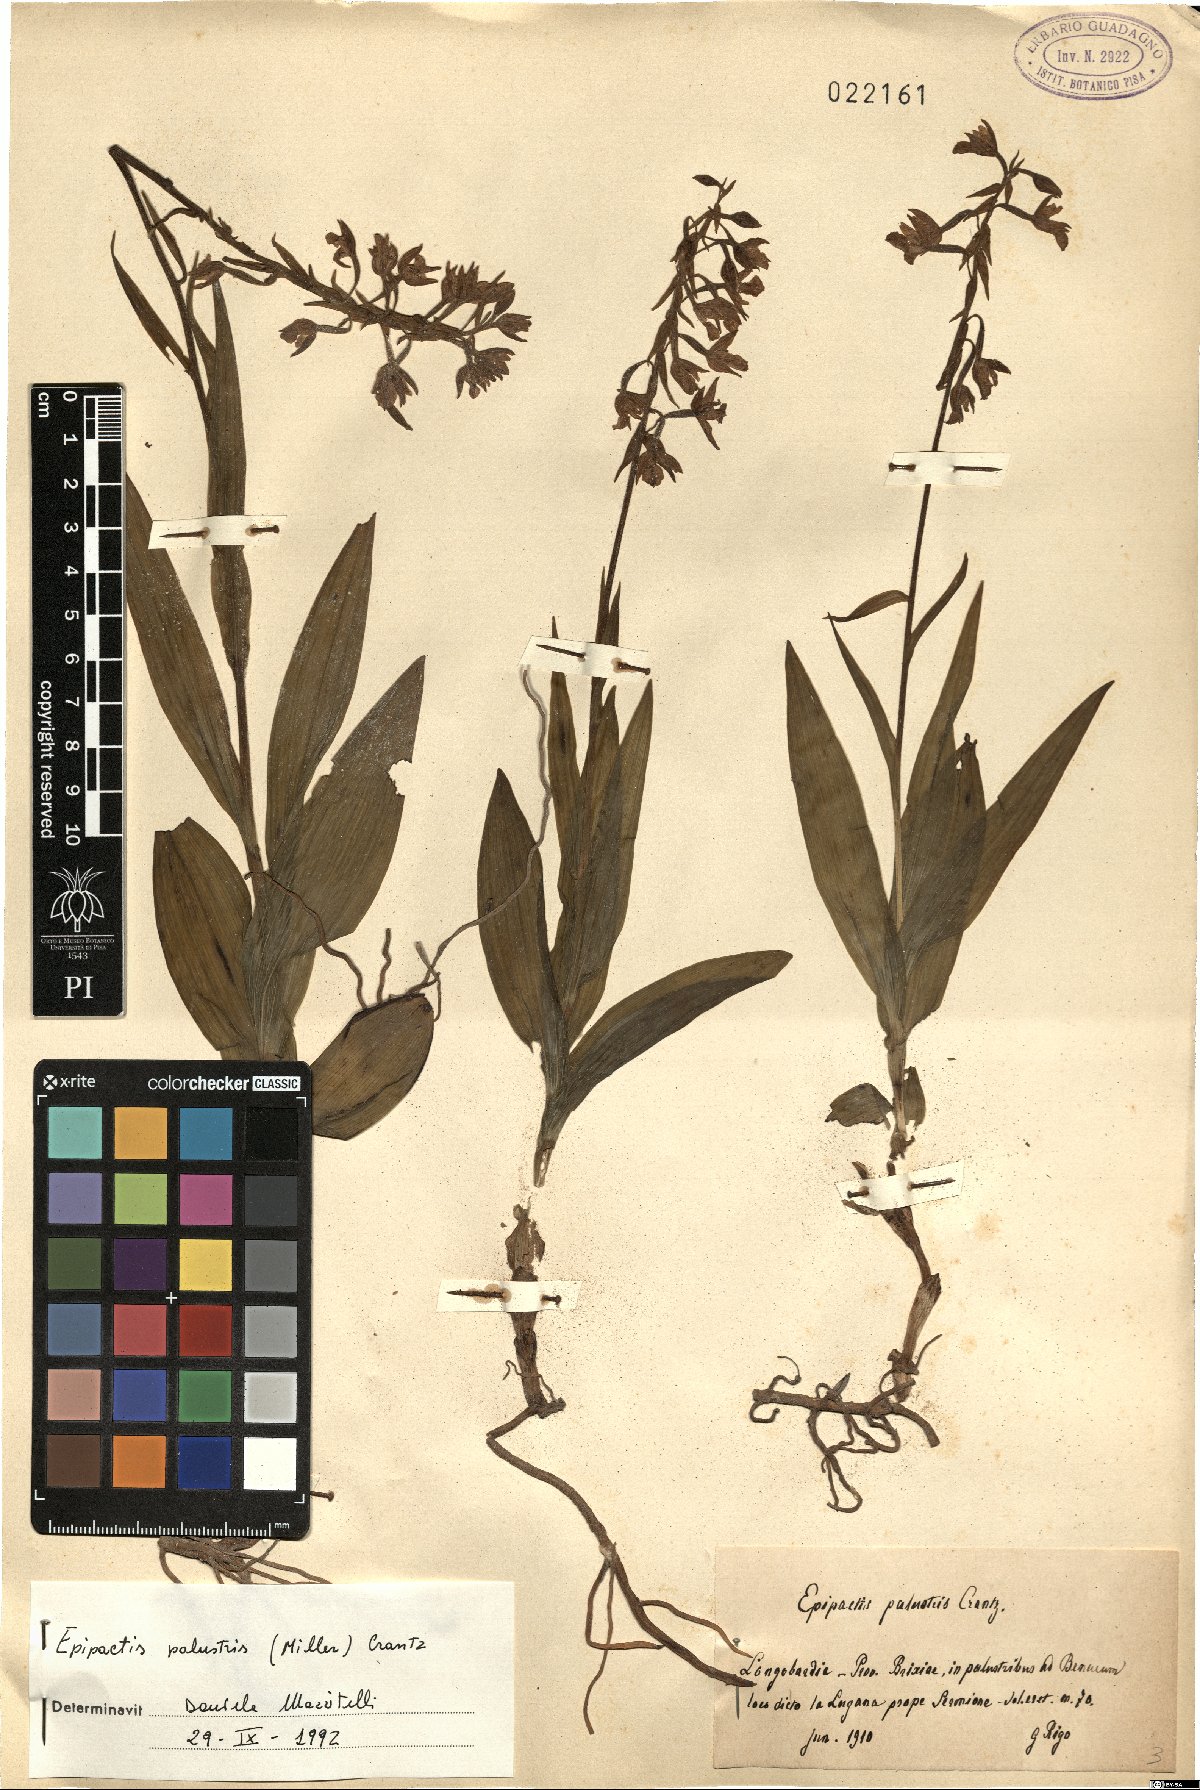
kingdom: Plantae
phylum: Tracheophyta
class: Liliopsida
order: Asparagales
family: Orchidaceae
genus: Epipactis
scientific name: Epipactis palustris
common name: Marsh helleborine
